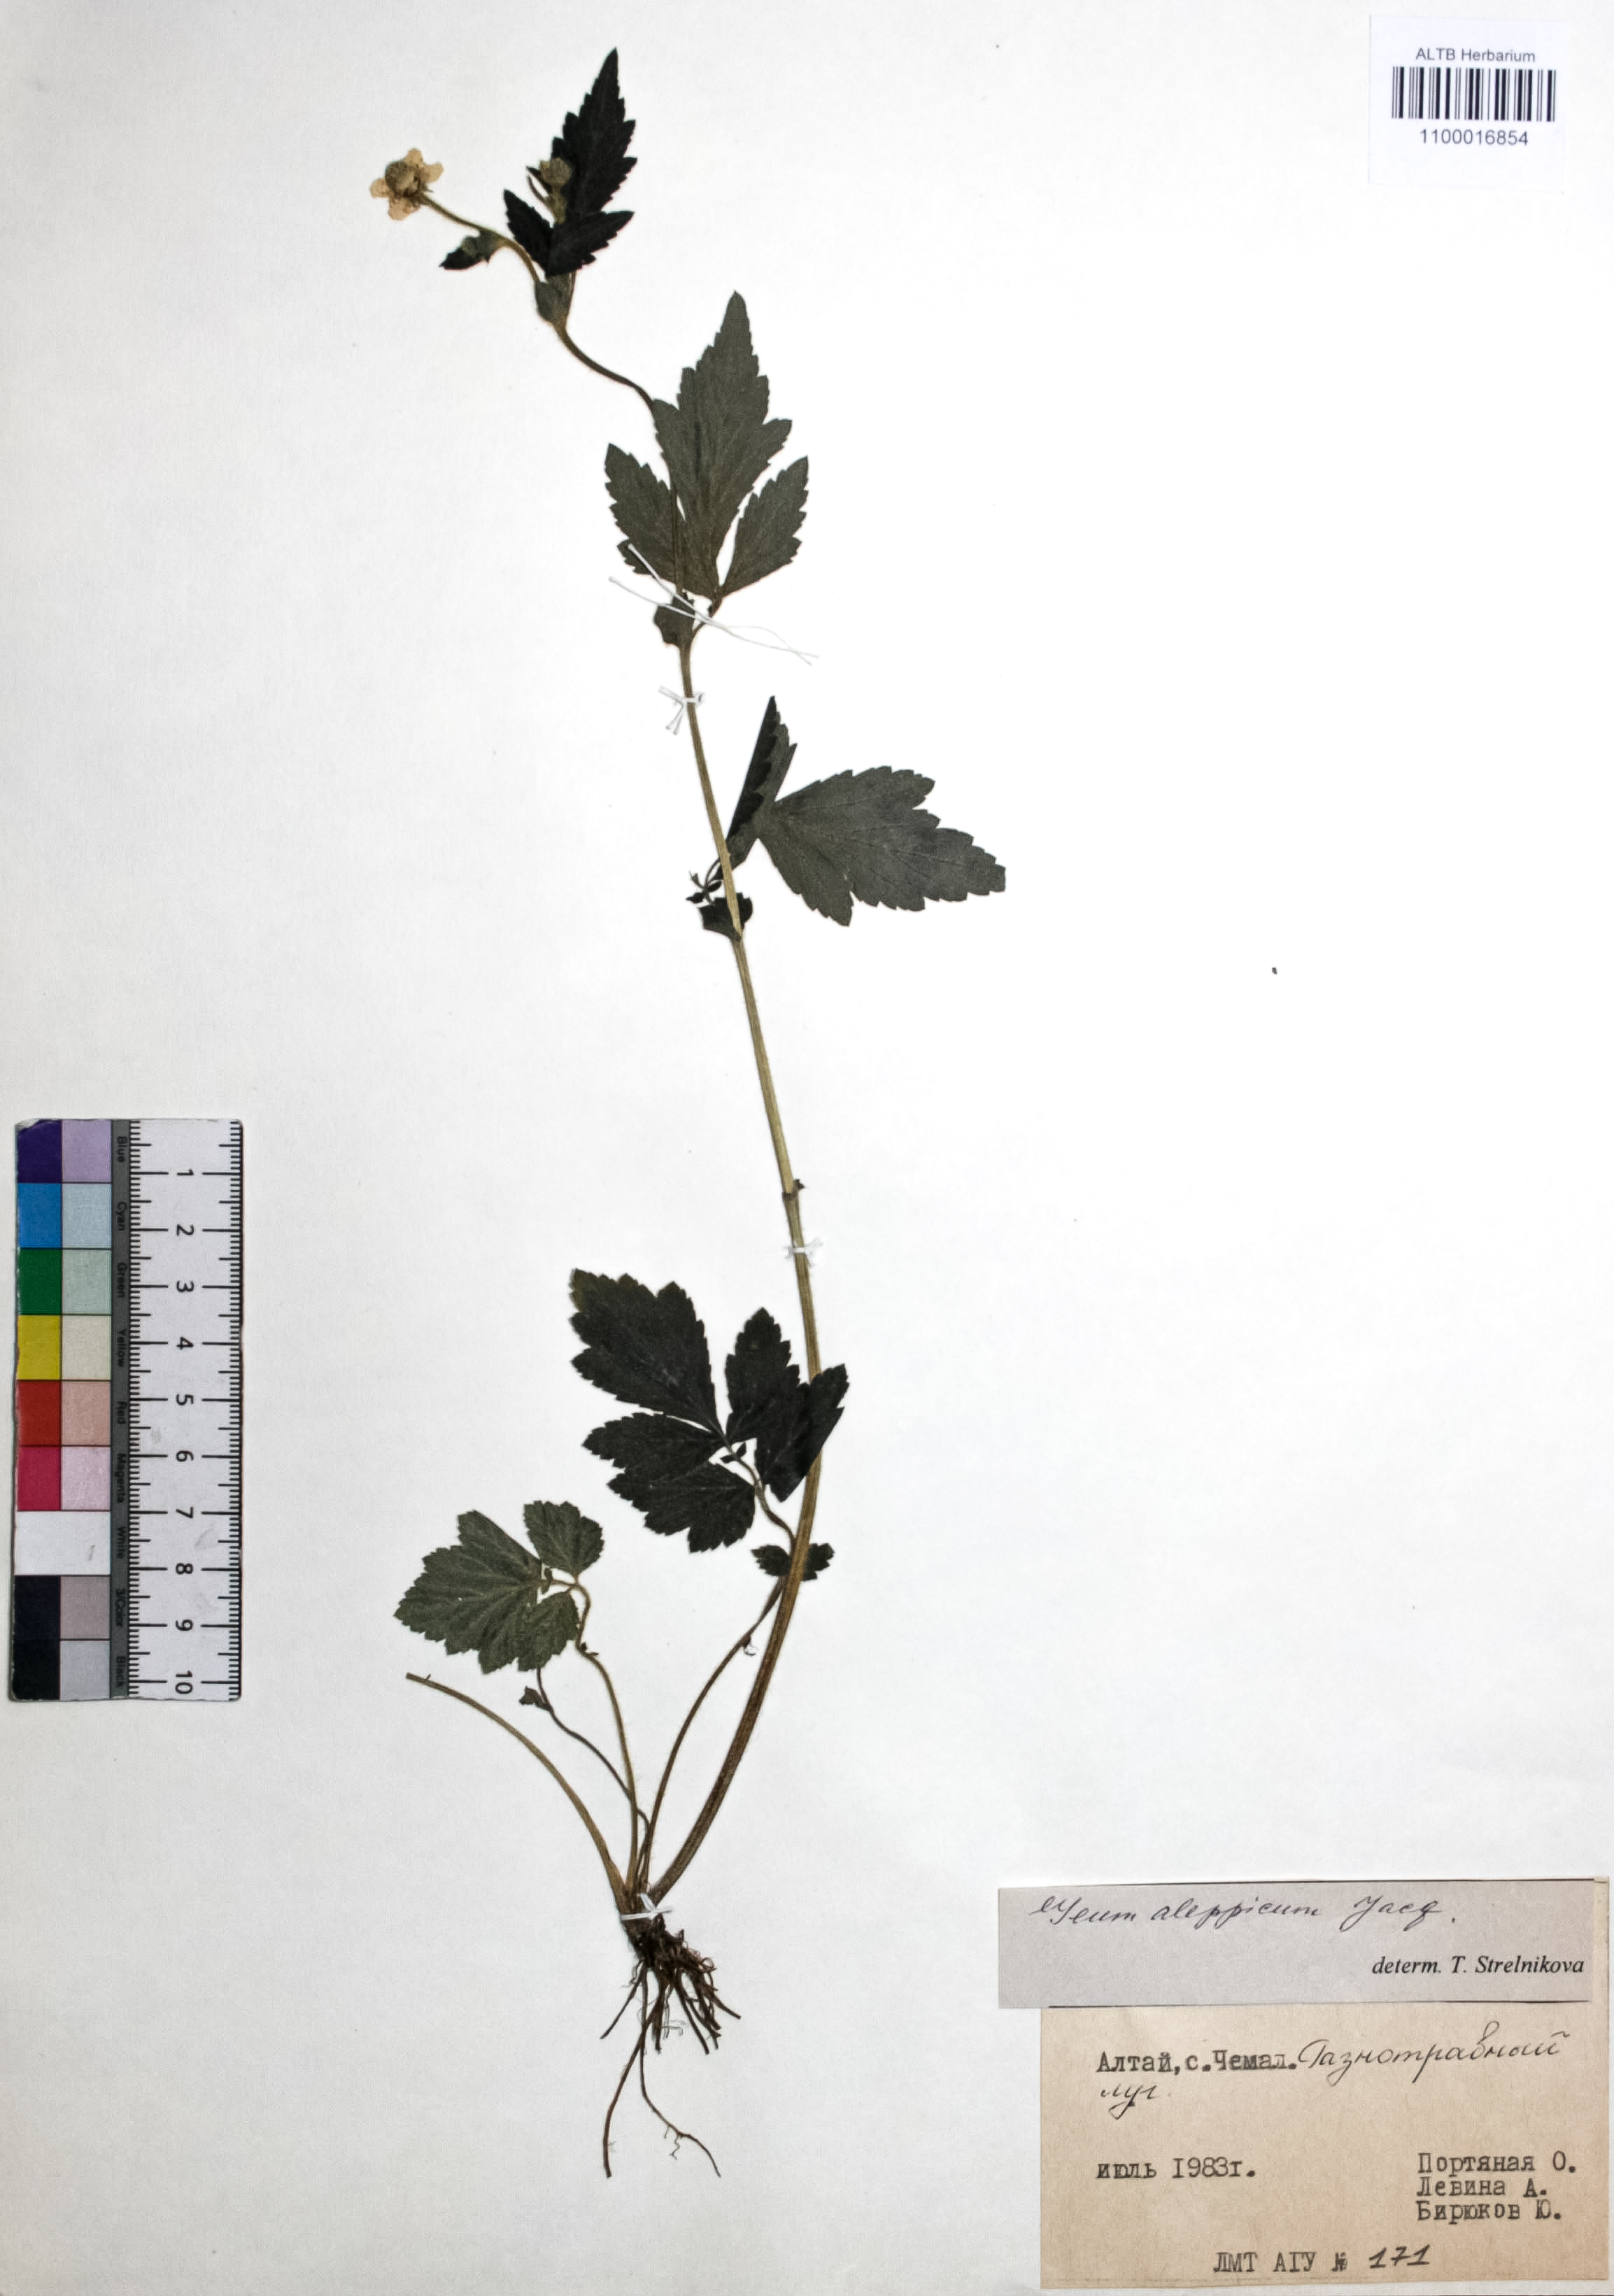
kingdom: Plantae
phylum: Tracheophyta
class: Magnoliopsida
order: Rosales
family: Rosaceae
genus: Geum
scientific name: Geum aleppicum
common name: Yellow avens
